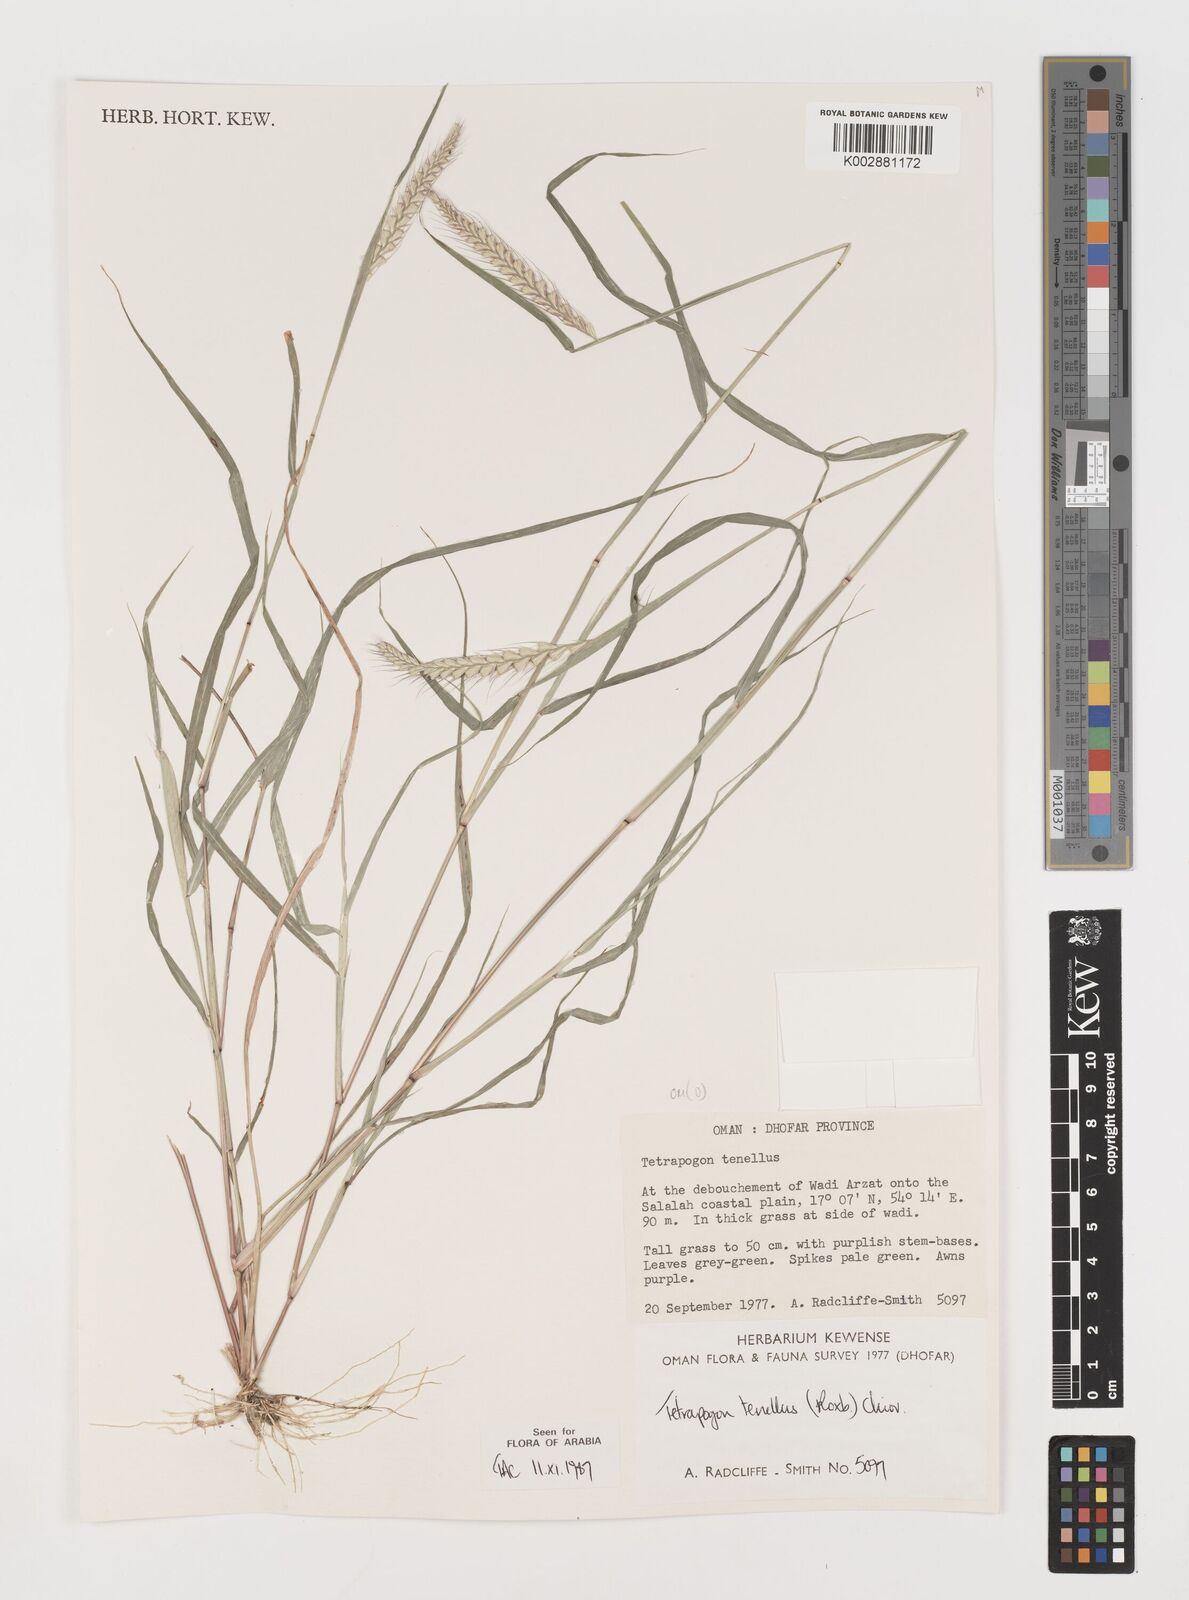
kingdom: Plantae
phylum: Tracheophyta
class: Liliopsida
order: Poales
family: Poaceae
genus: Tetrapogon
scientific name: Tetrapogon tenellus
